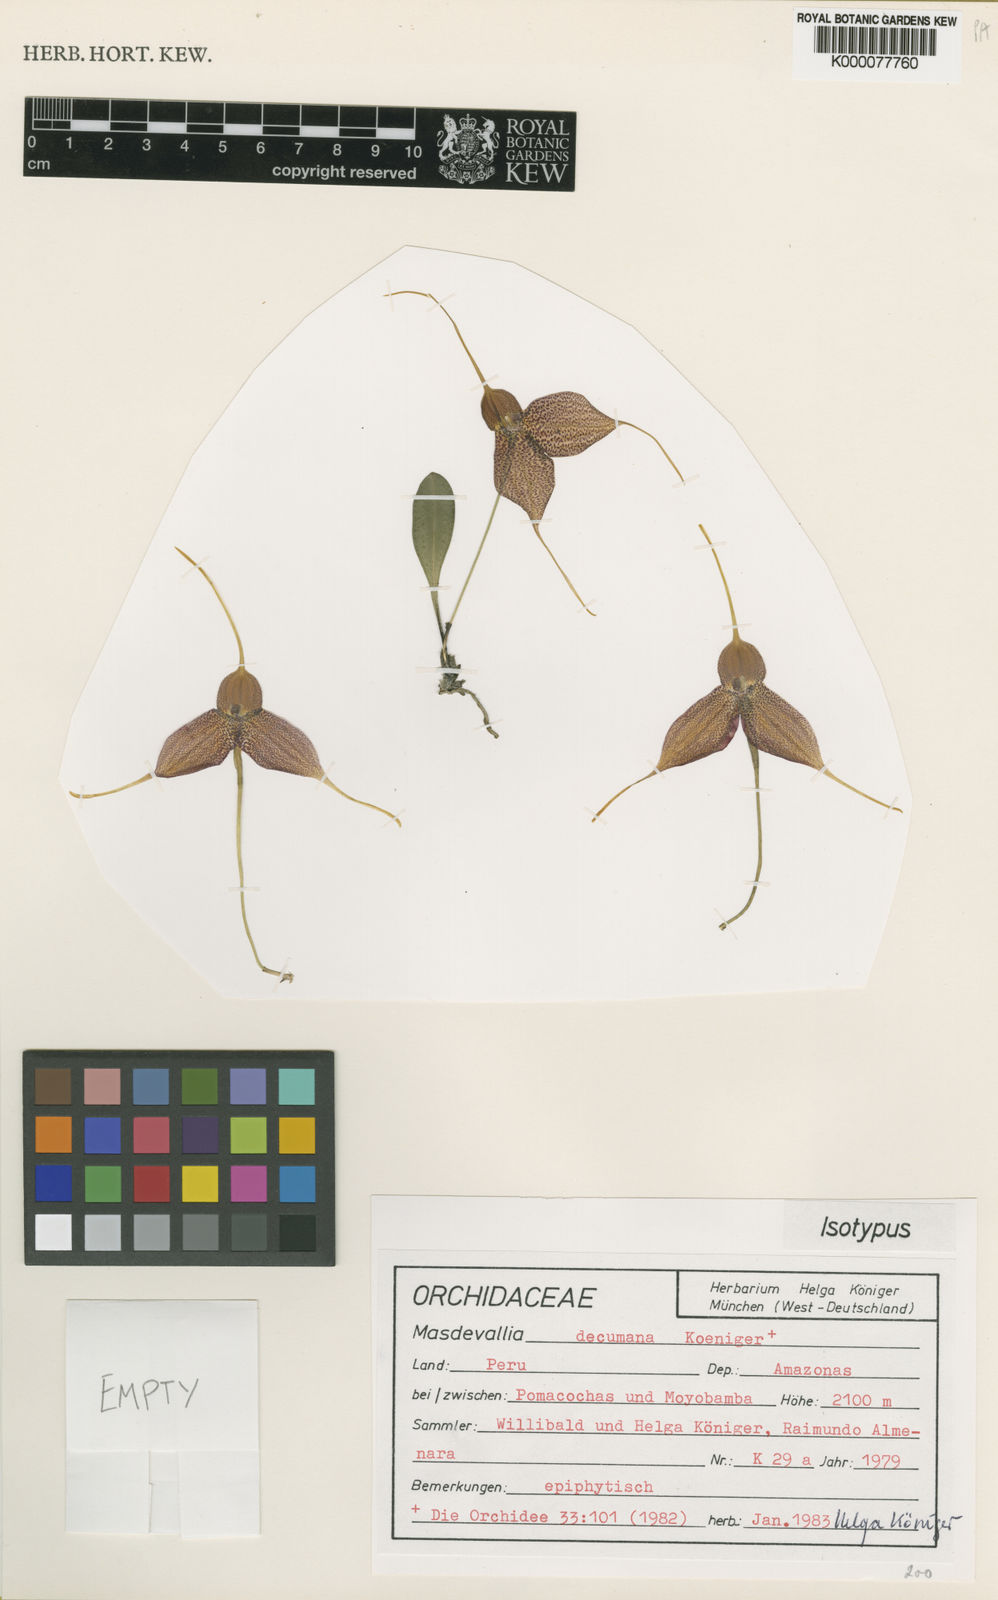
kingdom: Plantae
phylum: Tracheophyta
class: Liliopsida
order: Asparagales
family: Orchidaceae
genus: Masdevallia
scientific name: Masdevallia
